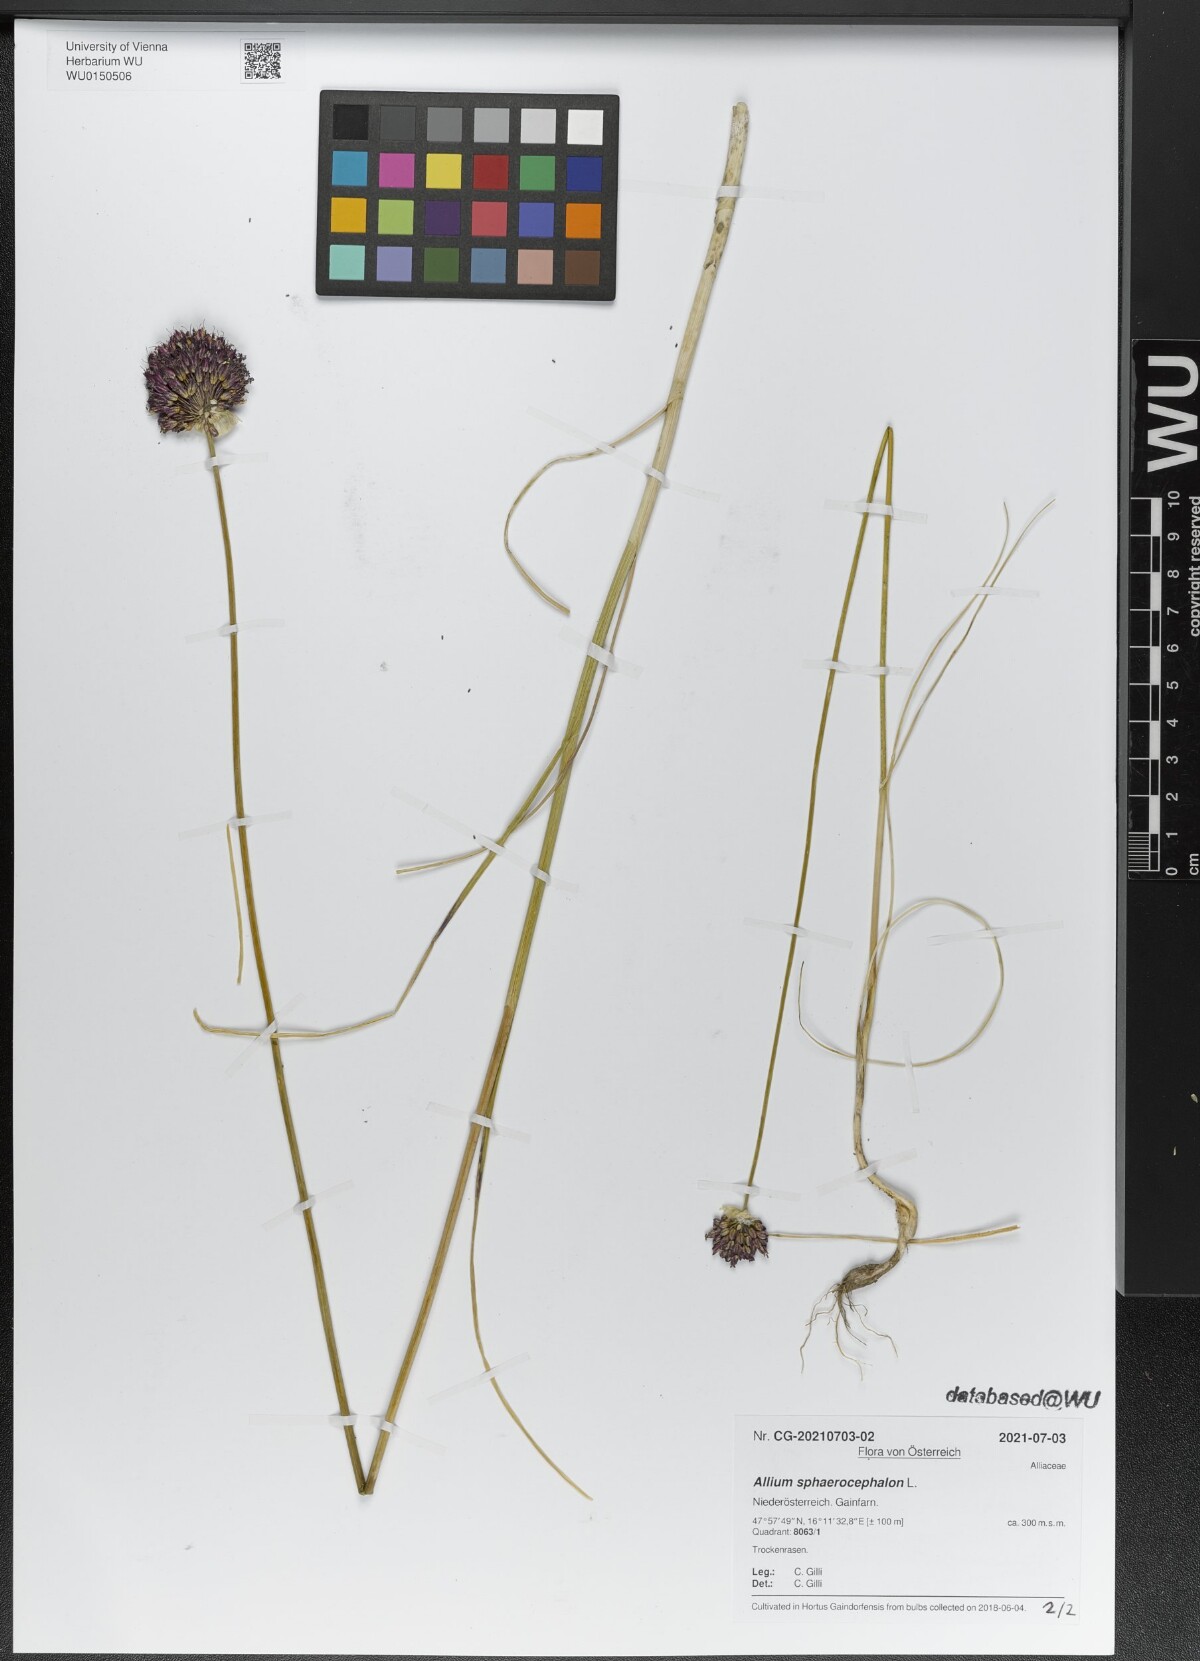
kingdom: Plantae
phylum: Tracheophyta
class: Liliopsida
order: Asparagales
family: Amaryllidaceae
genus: Allium
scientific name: Allium sphaerocephalon
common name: Round-headed leek
